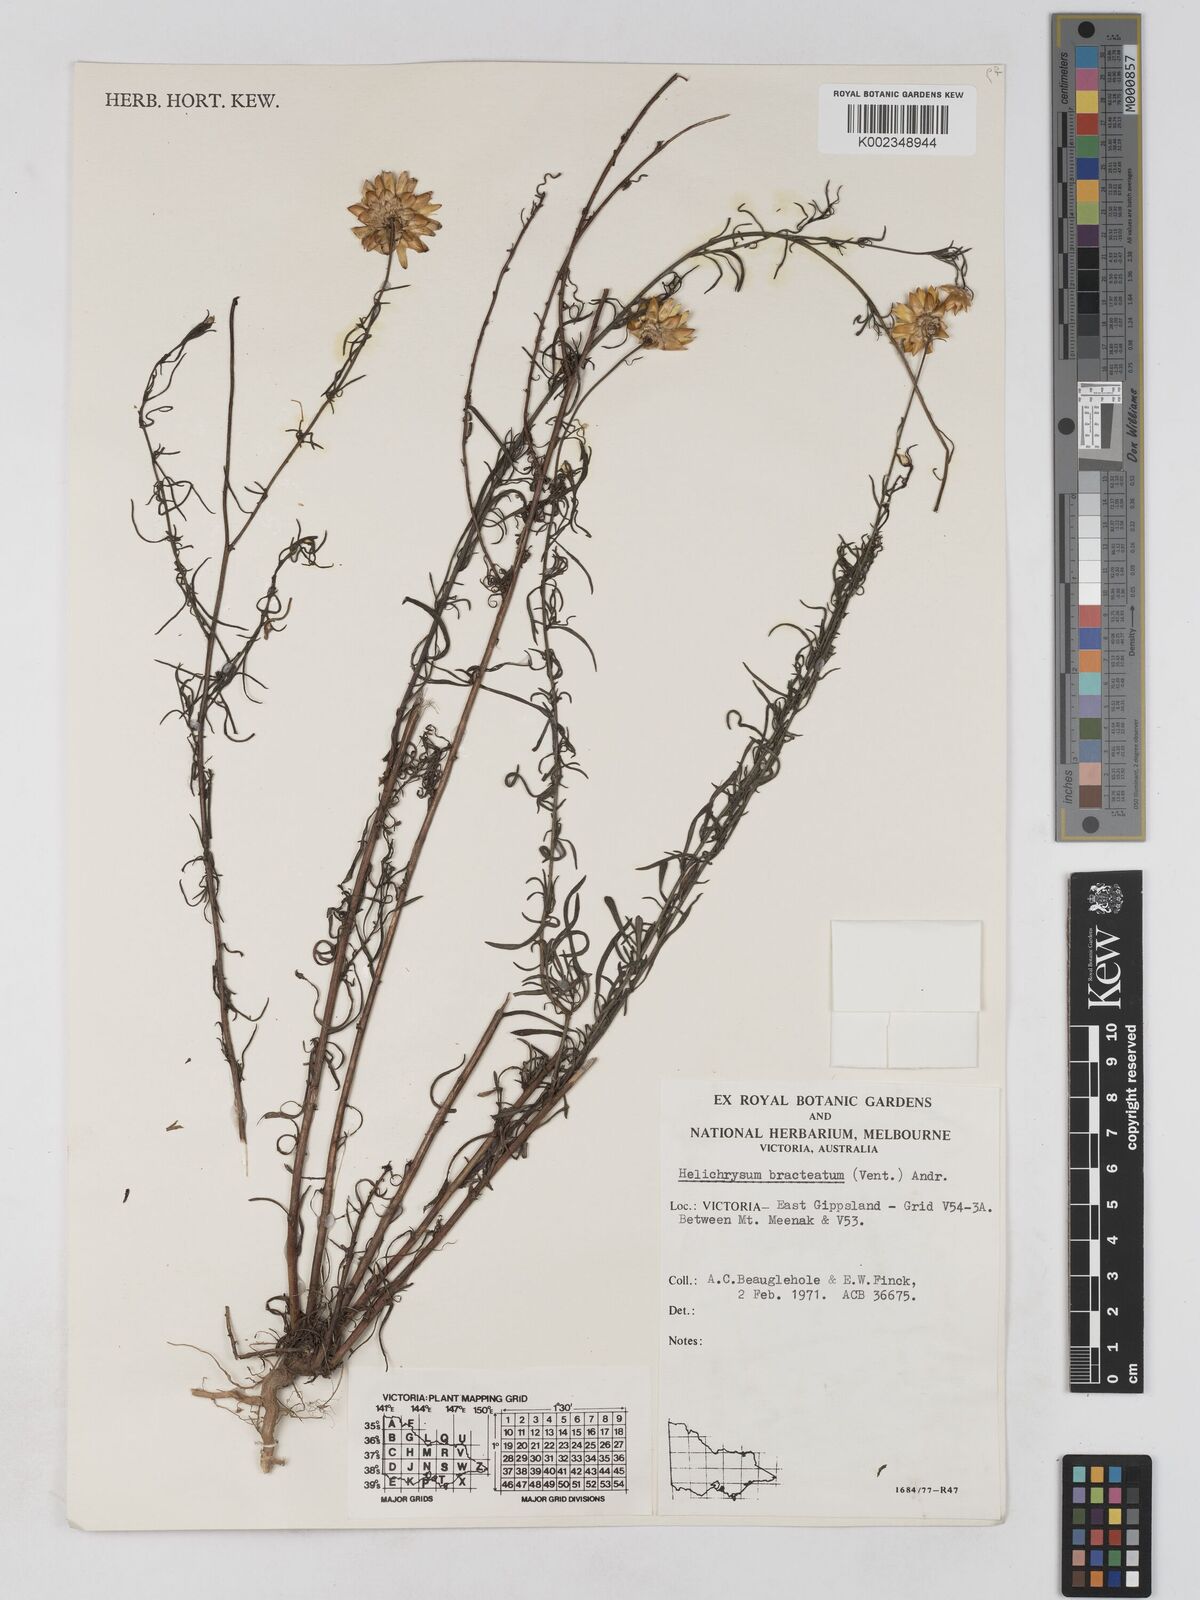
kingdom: Plantae
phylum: Tracheophyta
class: Magnoliopsida
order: Asterales
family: Asteraceae
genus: Xerochrysum
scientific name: Xerochrysum bracteatum
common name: Bracted strawflower
